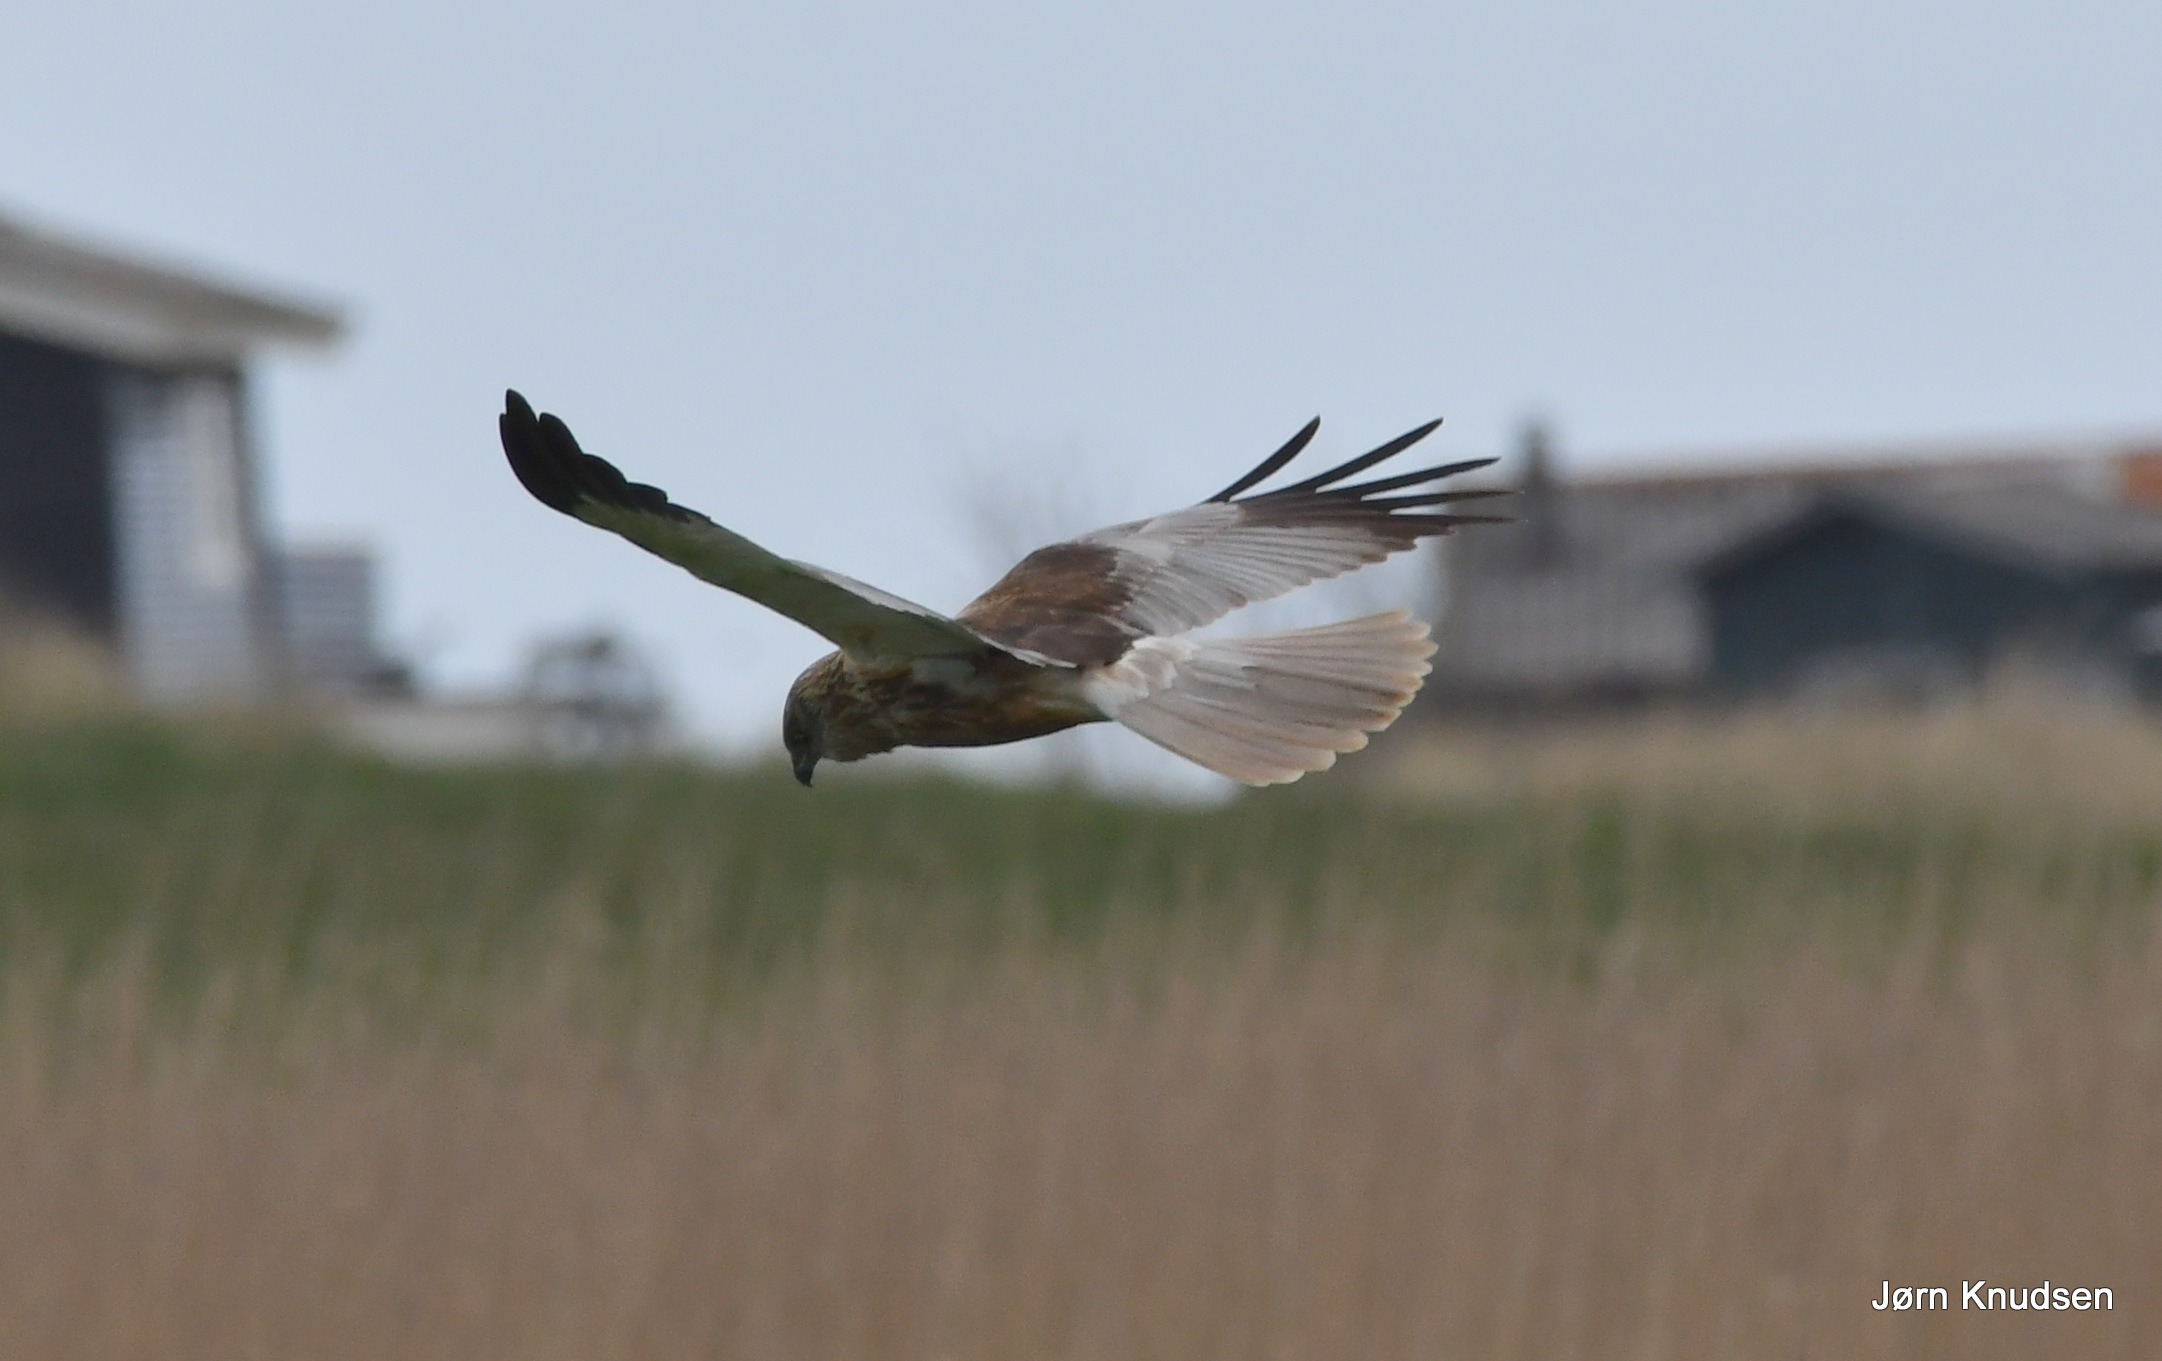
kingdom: Animalia
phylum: Chordata
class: Aves
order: Accipitriformes
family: Accipitridae
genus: Circus
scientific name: Circus aeruginosus
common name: Rørhøg
